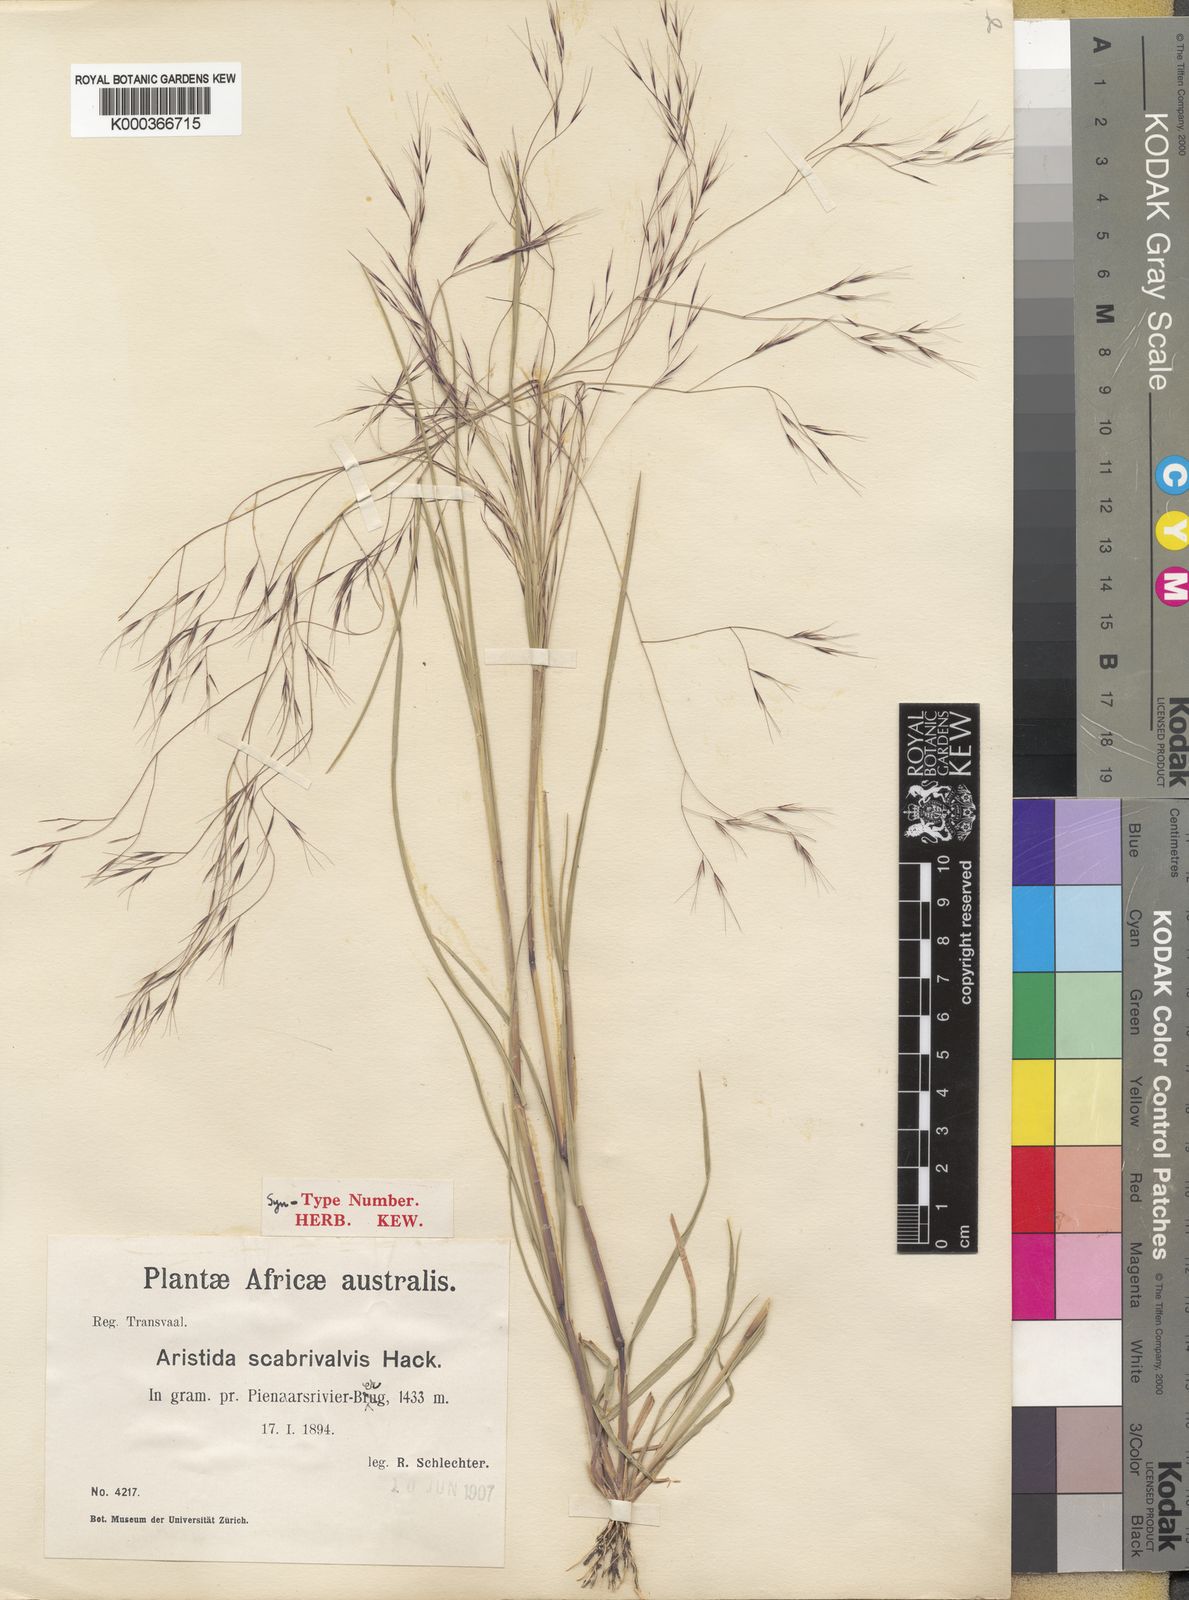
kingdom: Plantae
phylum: Tracheophyta
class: Liliopsida
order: Poales
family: Poaceae
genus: Aristida
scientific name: Aristida scabrivalvis
